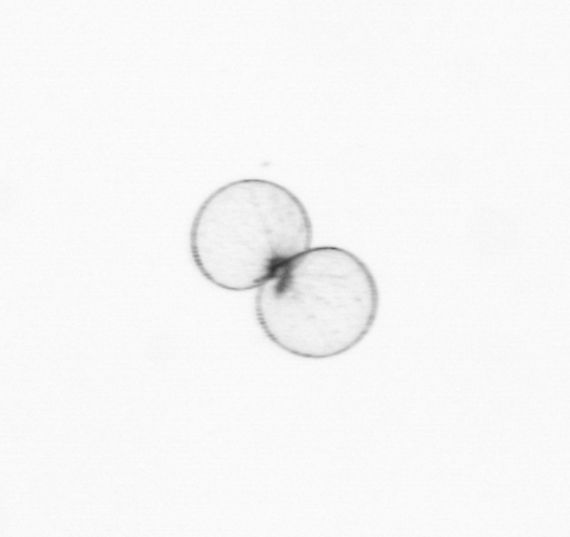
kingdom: Chromista
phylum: Myzozoa
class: Dinophyceae
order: Noctilucales
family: Noctilucaceae
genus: Noctiluca
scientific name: Noctiluca scintillans
